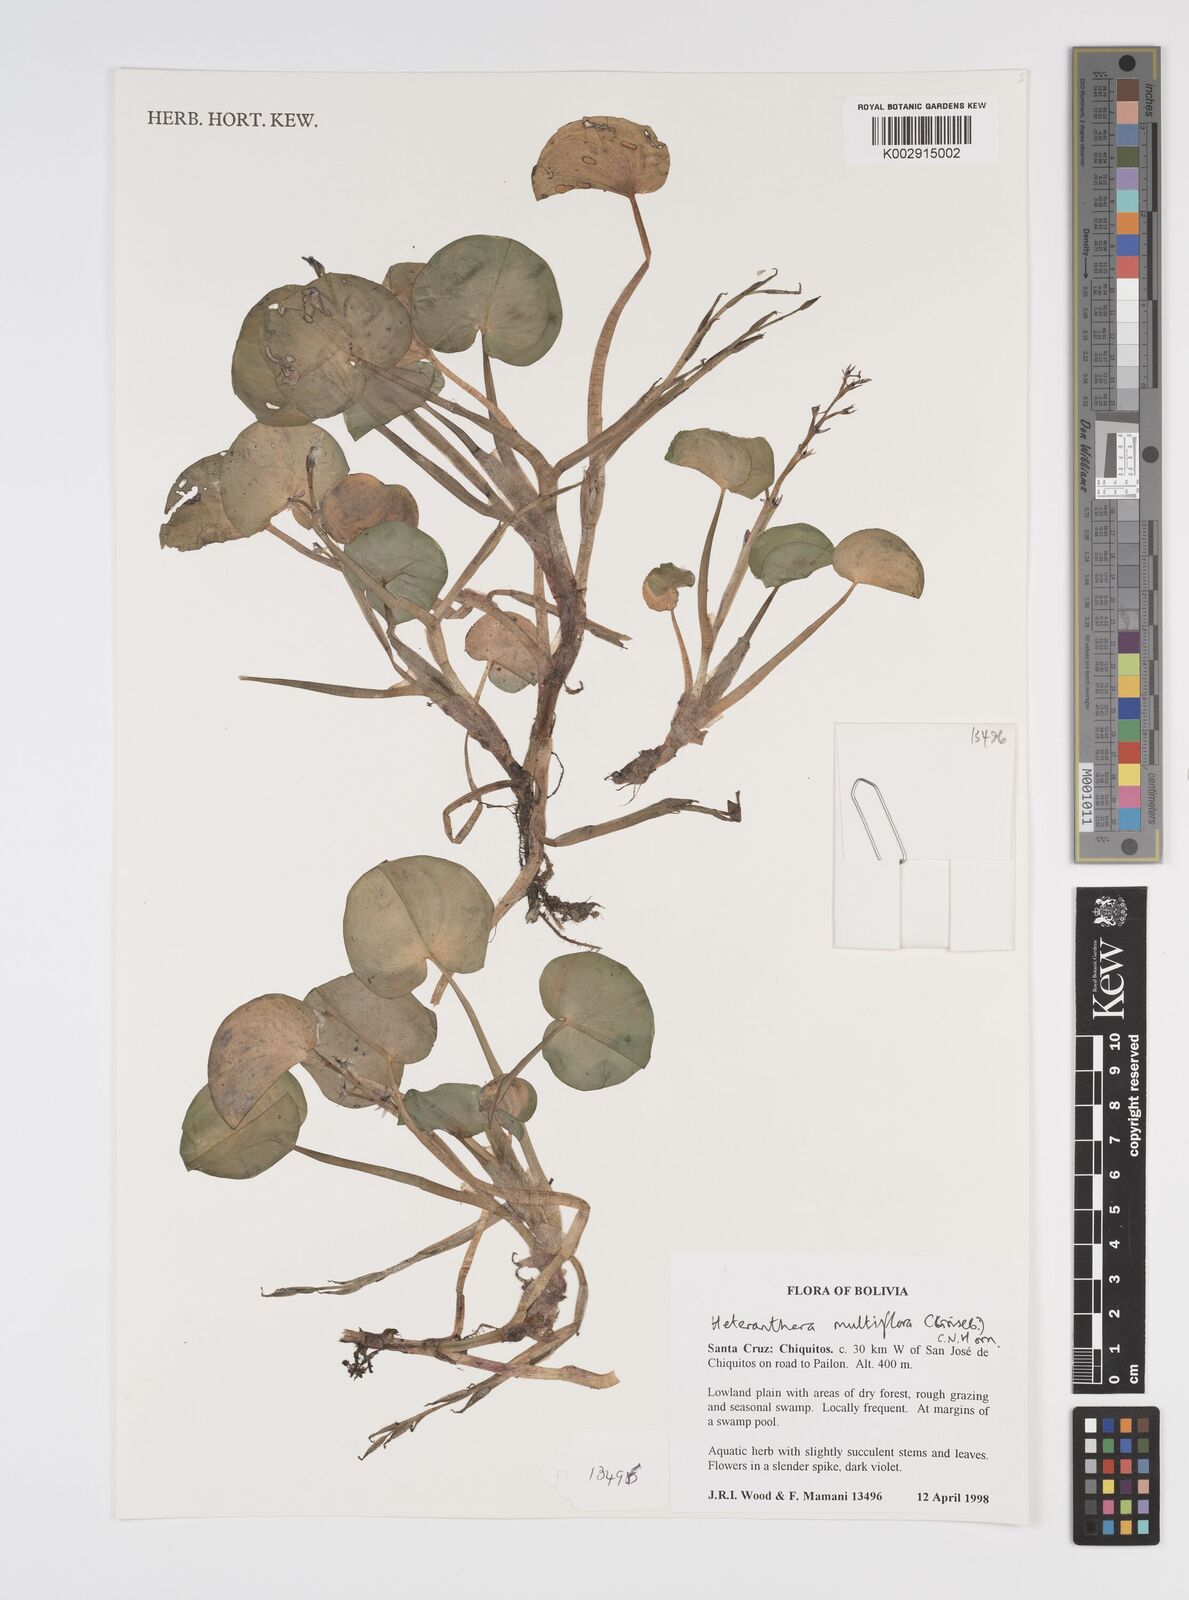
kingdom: Plantae
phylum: Tracheophyta
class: Liliopsida
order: Commelinales
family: Pontederiaceae
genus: Heteranthera
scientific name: Heteranthera multiflora
